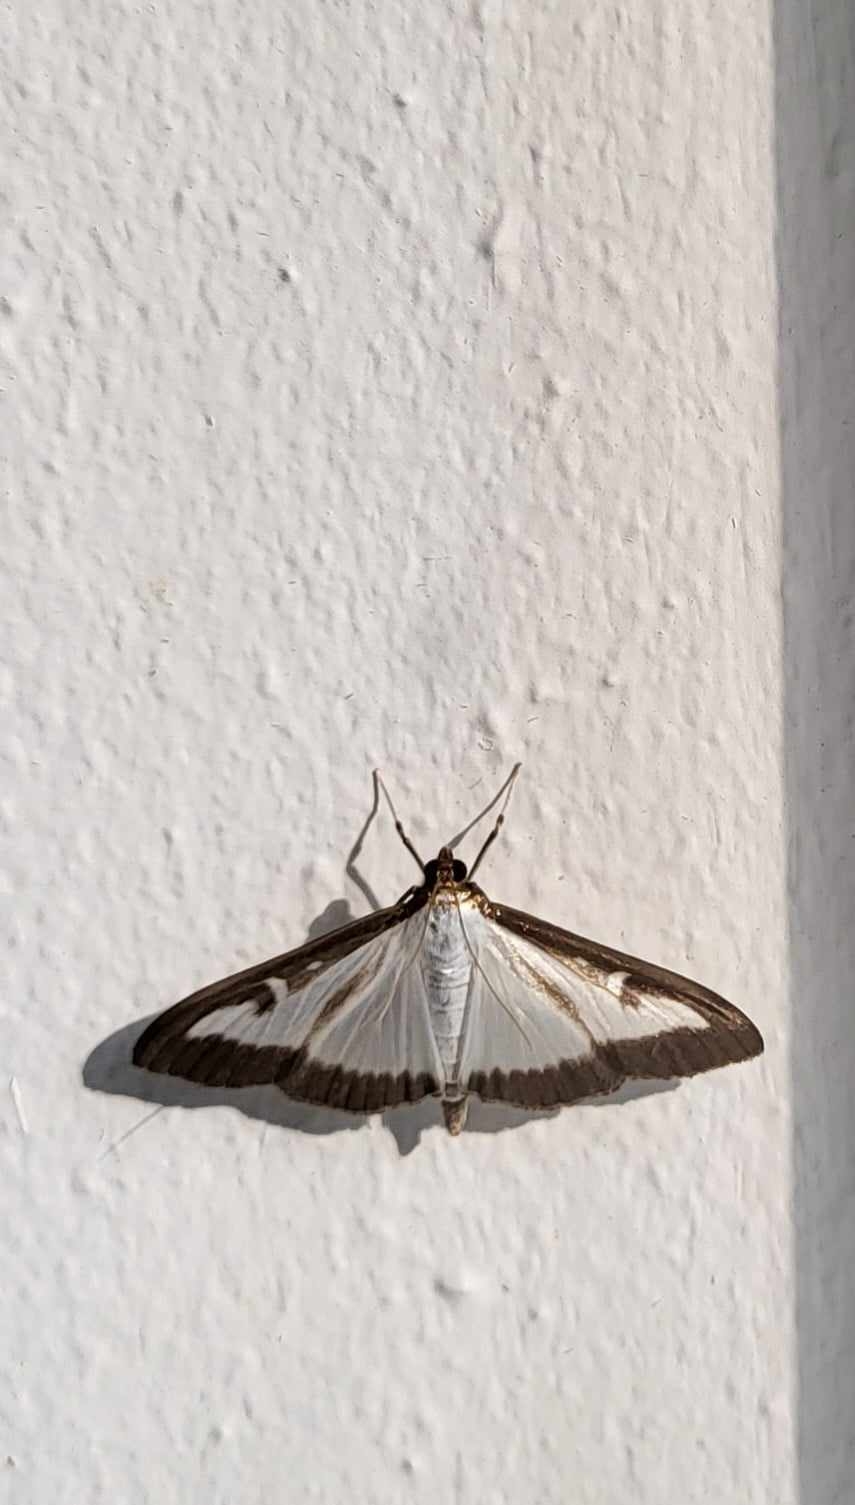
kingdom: Animalia
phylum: Arthropoda
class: Insecta
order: Lepidoptera
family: Crambidae
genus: Cydalima
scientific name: Cydalima perspectalis
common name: Buksbomhalvmøl
